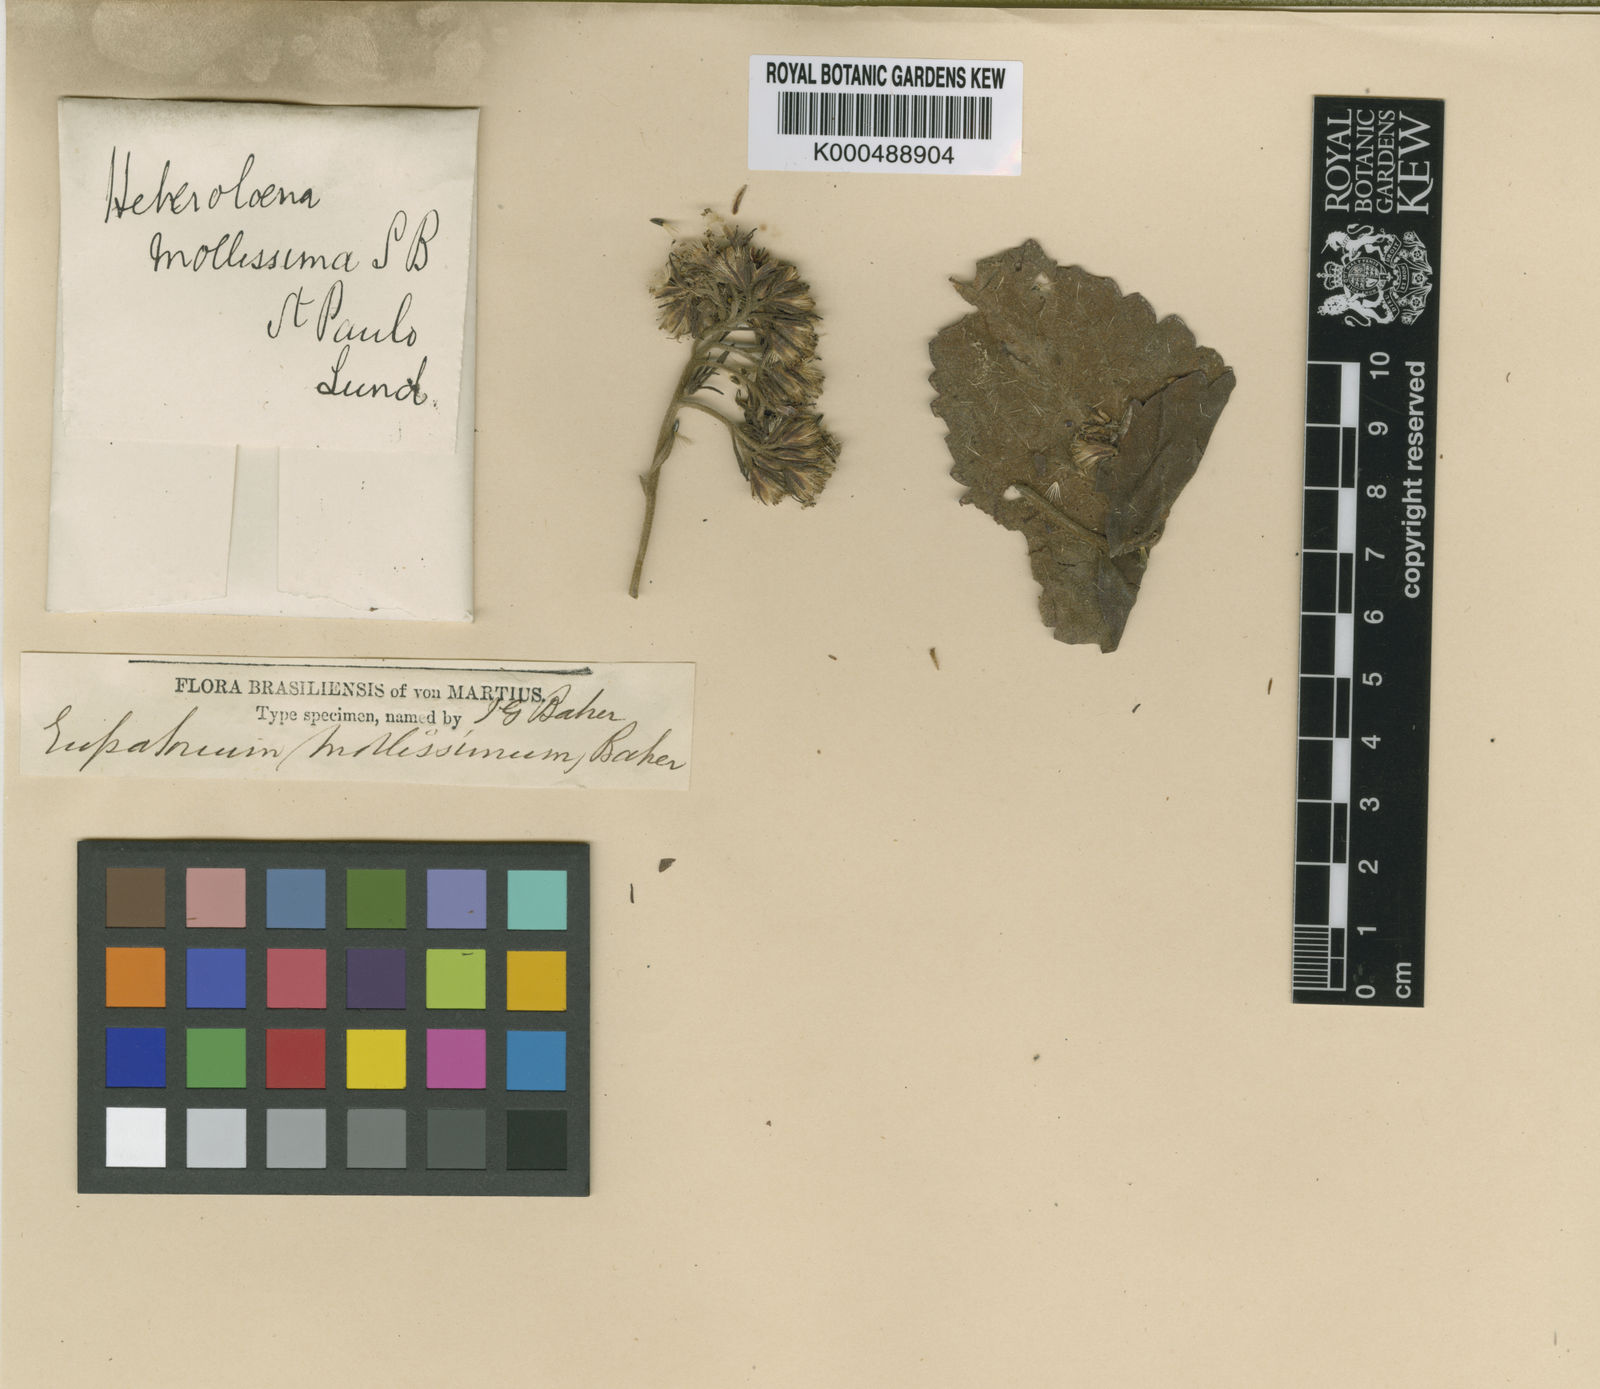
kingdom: Plantae
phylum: Tracheophyta
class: Magnoliopsida
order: Asterales
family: Asteraceae
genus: Grazielia
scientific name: Grazielia mollissima
